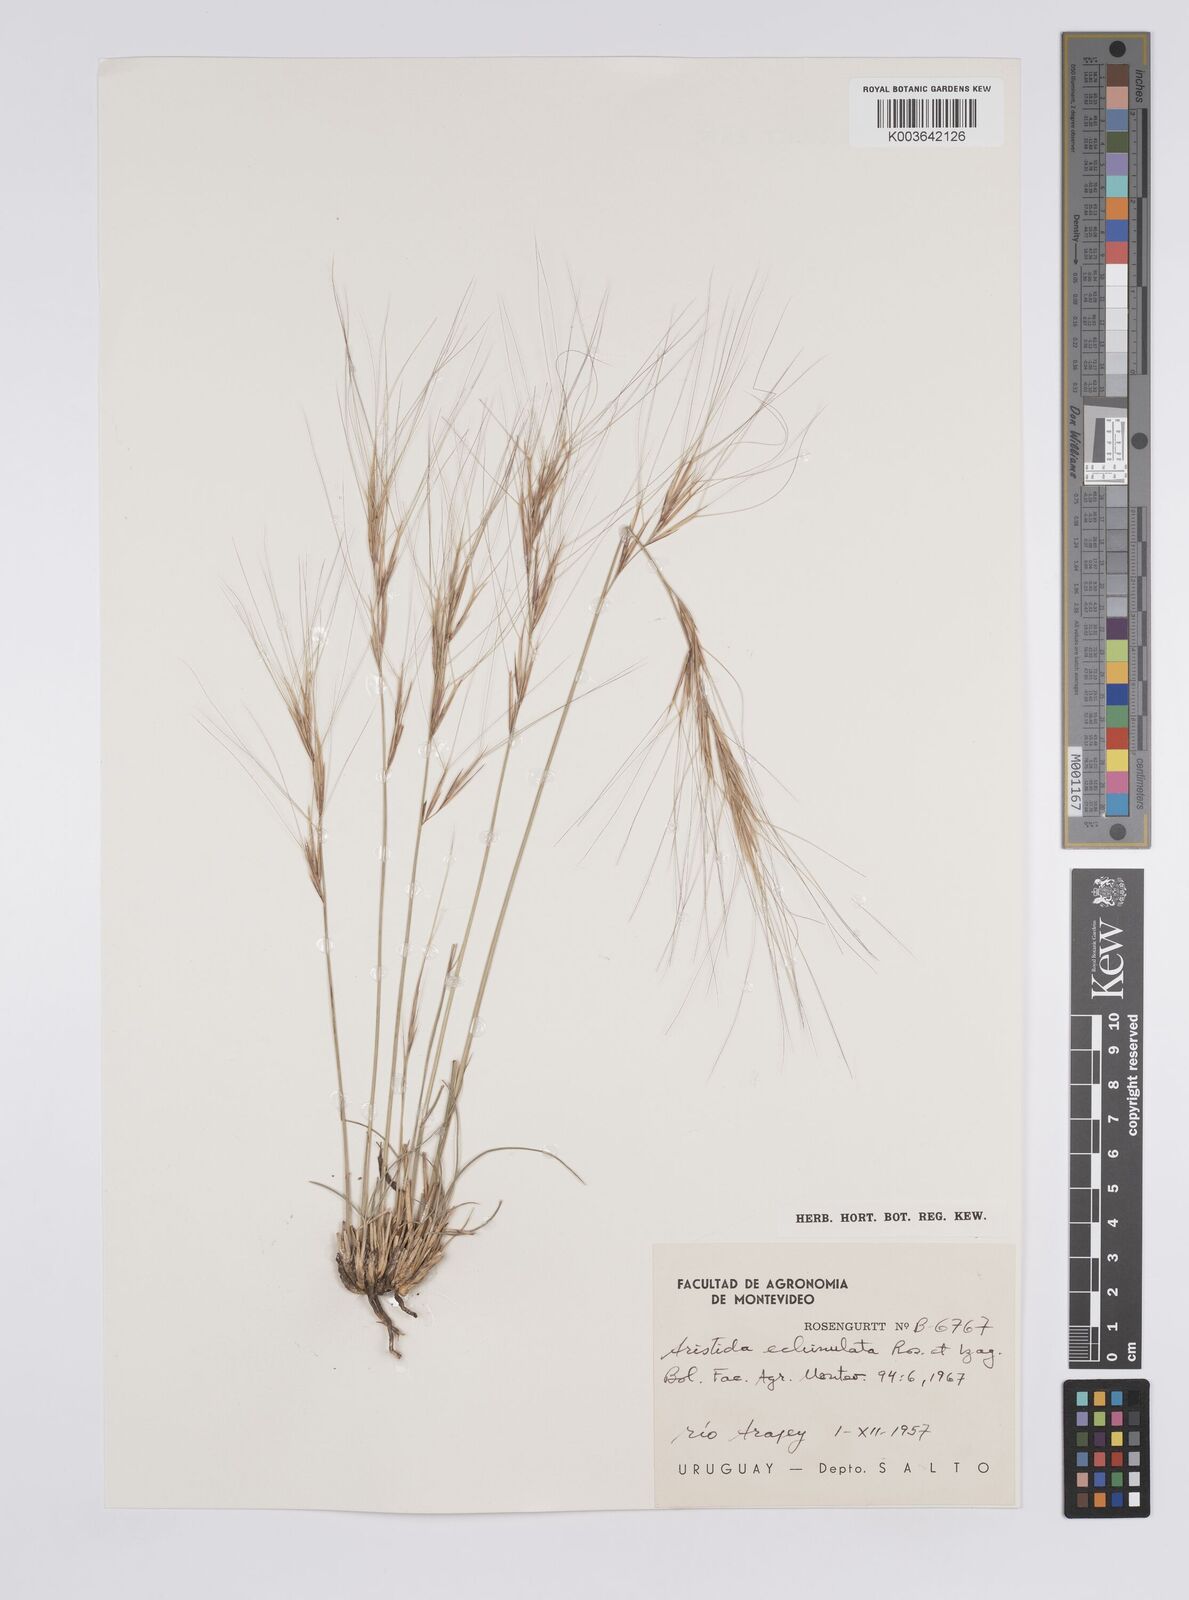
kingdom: Plantae
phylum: Tracheophyta
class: Liliopsida
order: Poales
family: Poaceae
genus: Aristida
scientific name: Aristida echinulata
